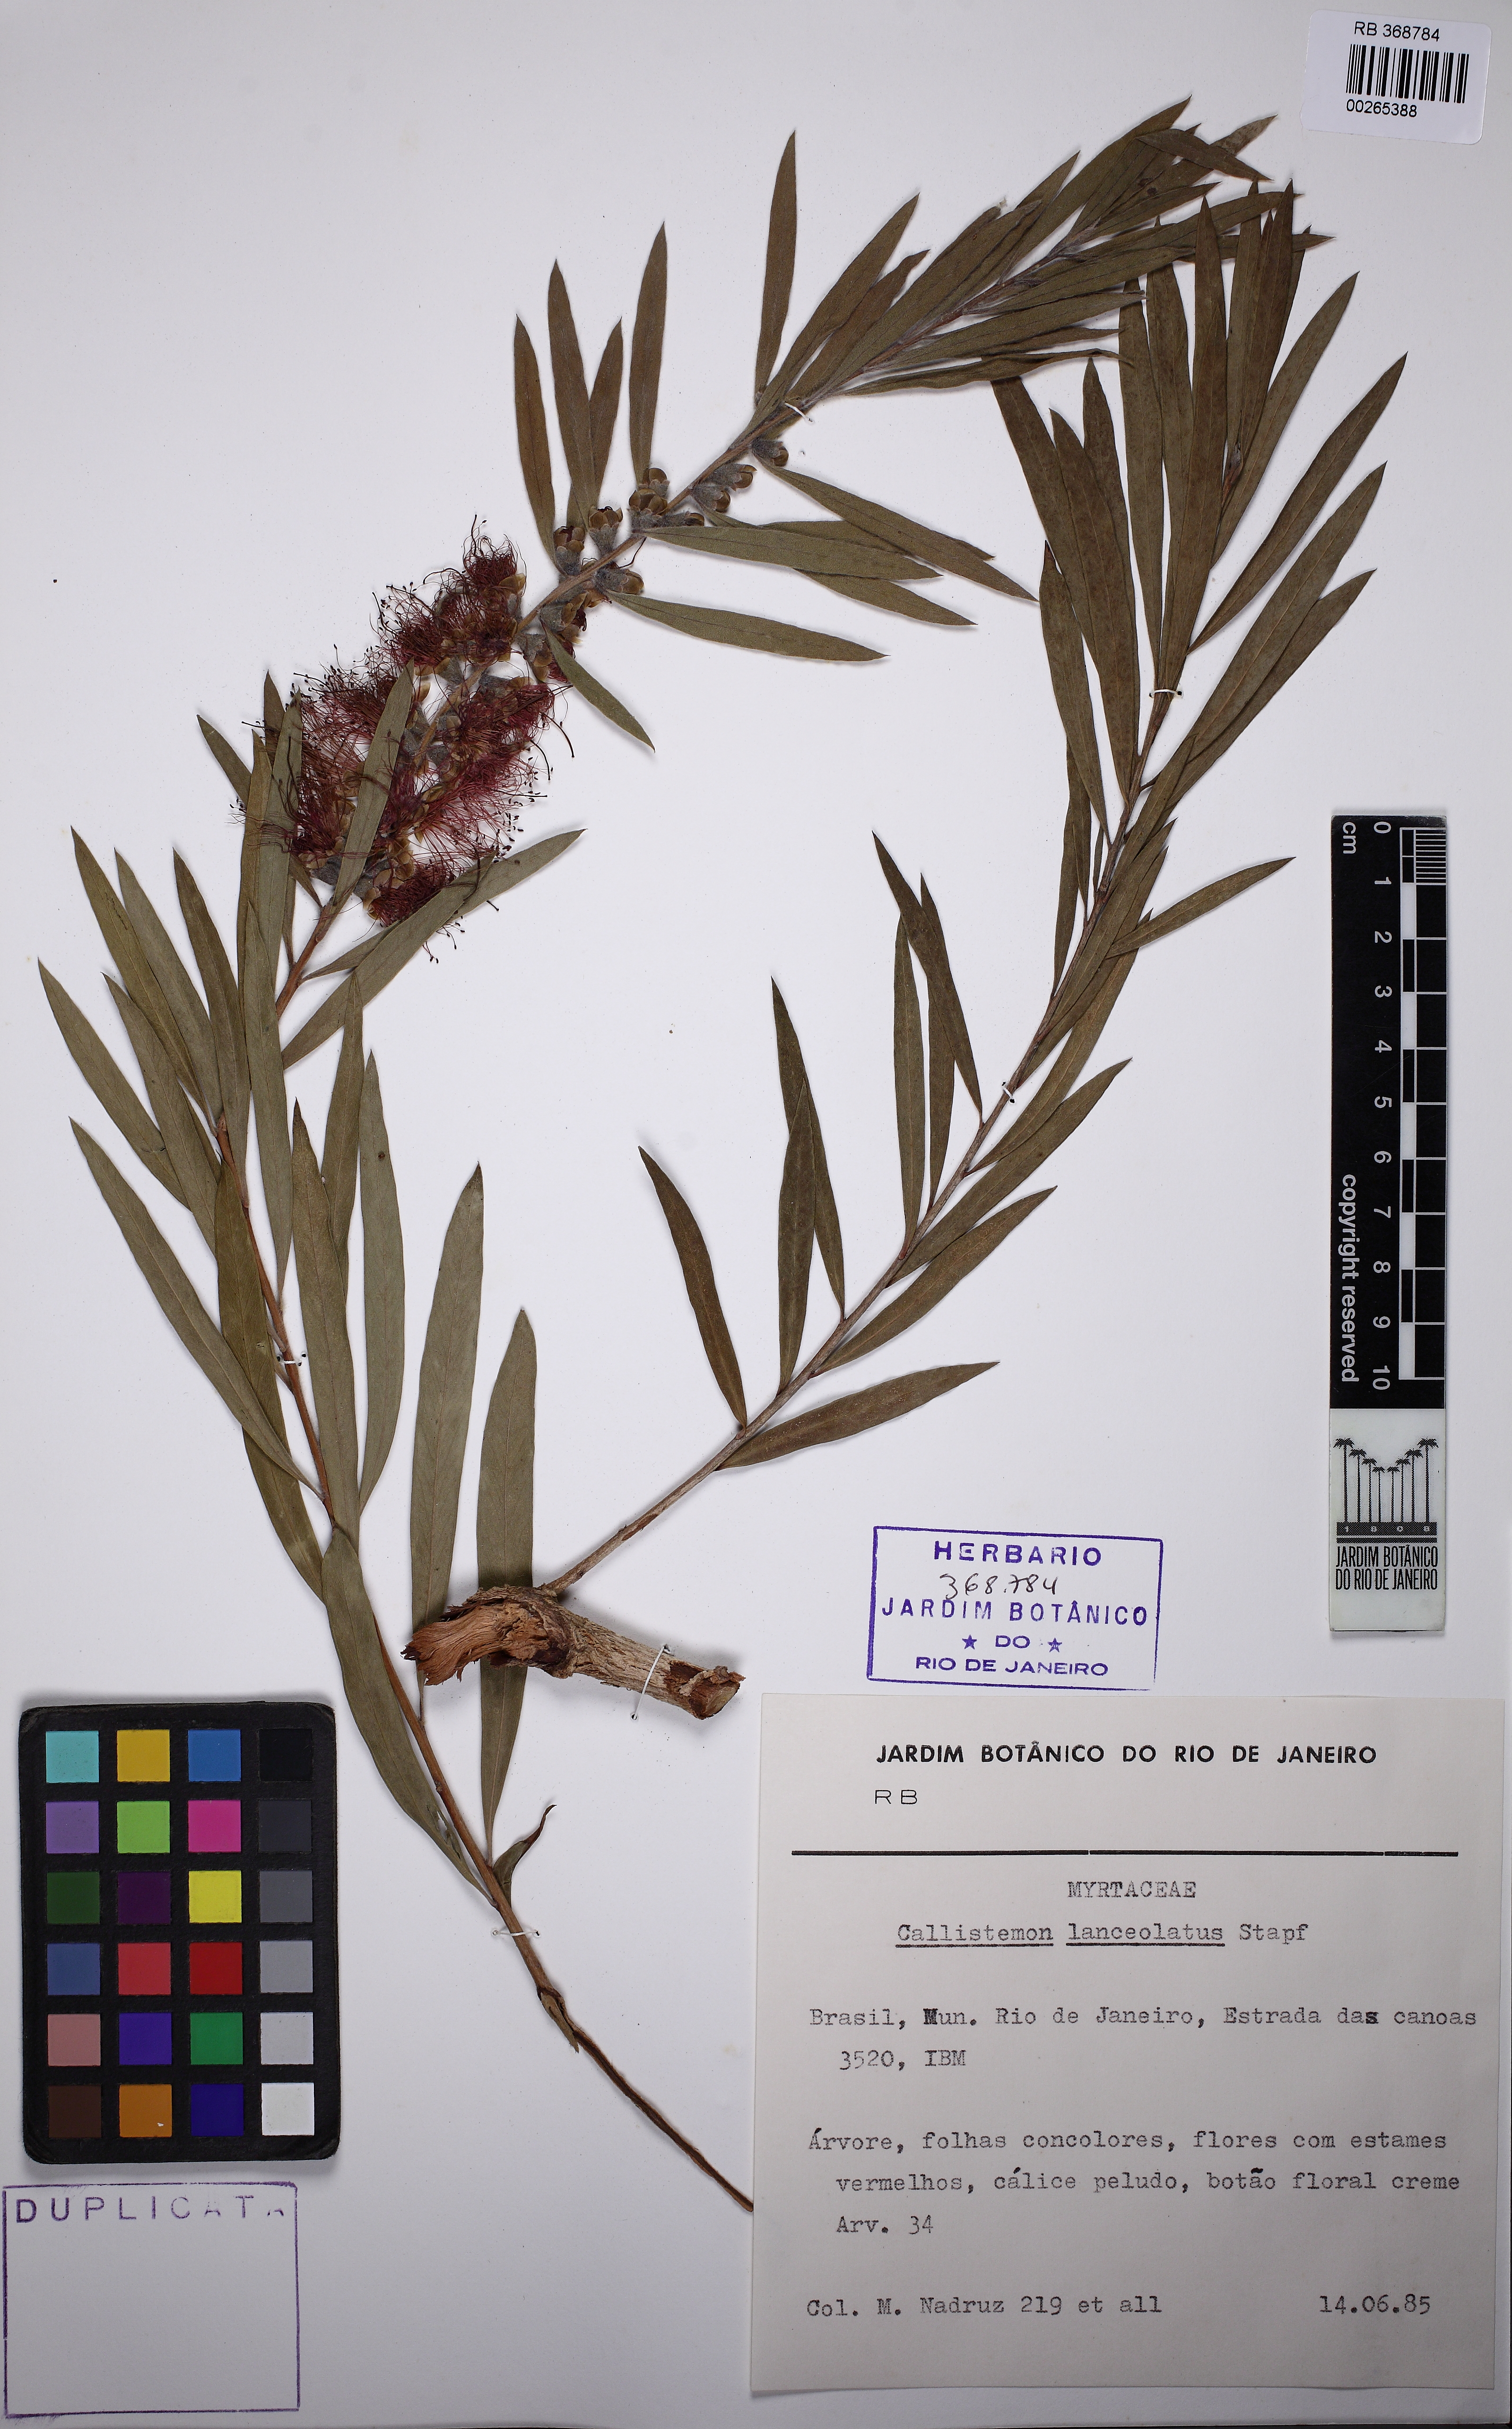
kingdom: Plantae
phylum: Tracheophyta
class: Magnoliopsida
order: Myrtales
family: Myrtaceae
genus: Callistemon
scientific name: Callistemon lanceolatus
